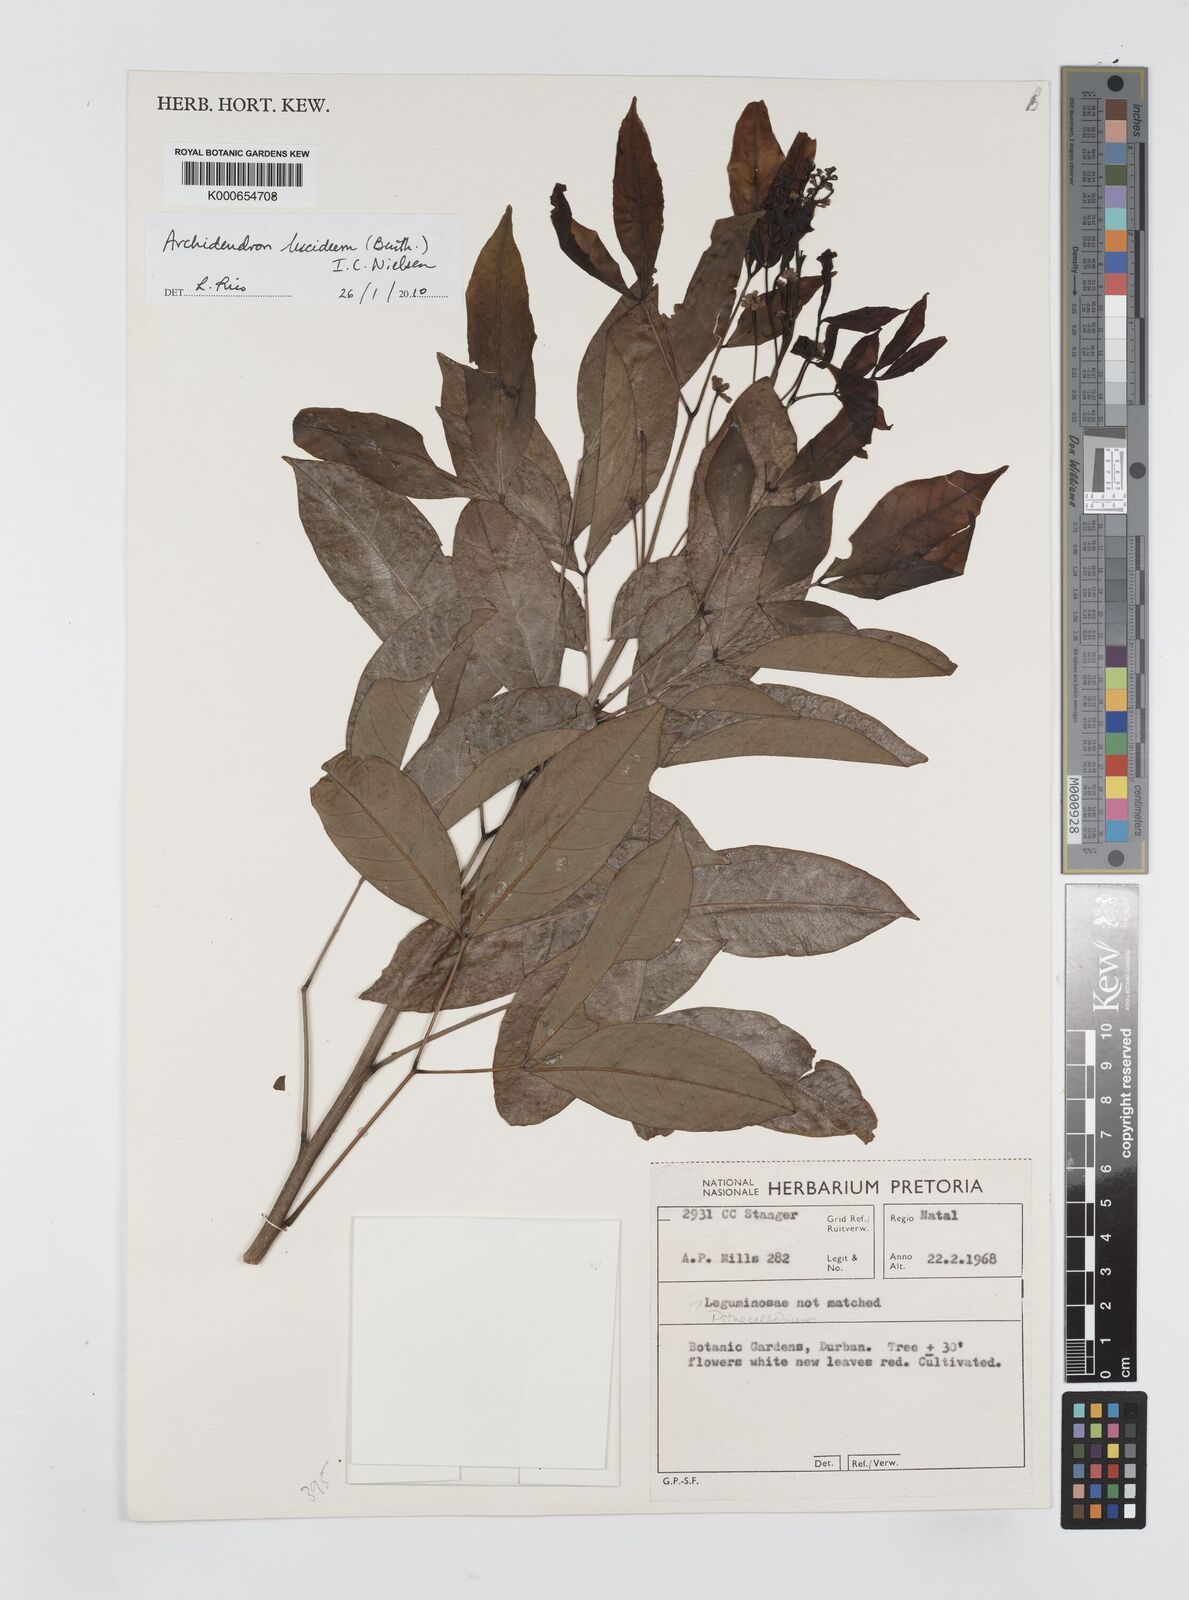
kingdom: Plantae
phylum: Tracheophyta
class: Magnoliopsida
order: Fabales
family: Fabaceae
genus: Archidendron
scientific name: Archidendron lucidum
